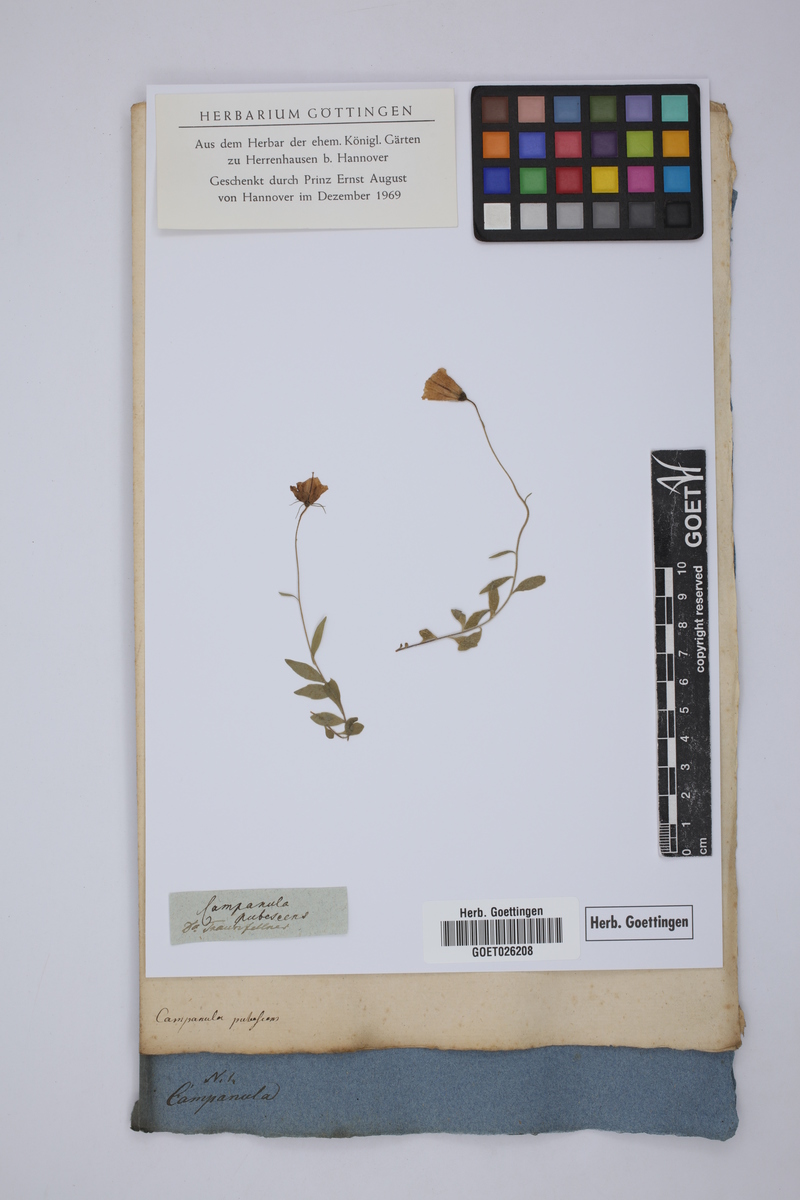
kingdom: Plantae
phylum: Tracheophyta
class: Magnoliopsida
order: Asterales
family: Campanulaceae
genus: Campanula
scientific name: Campanula
